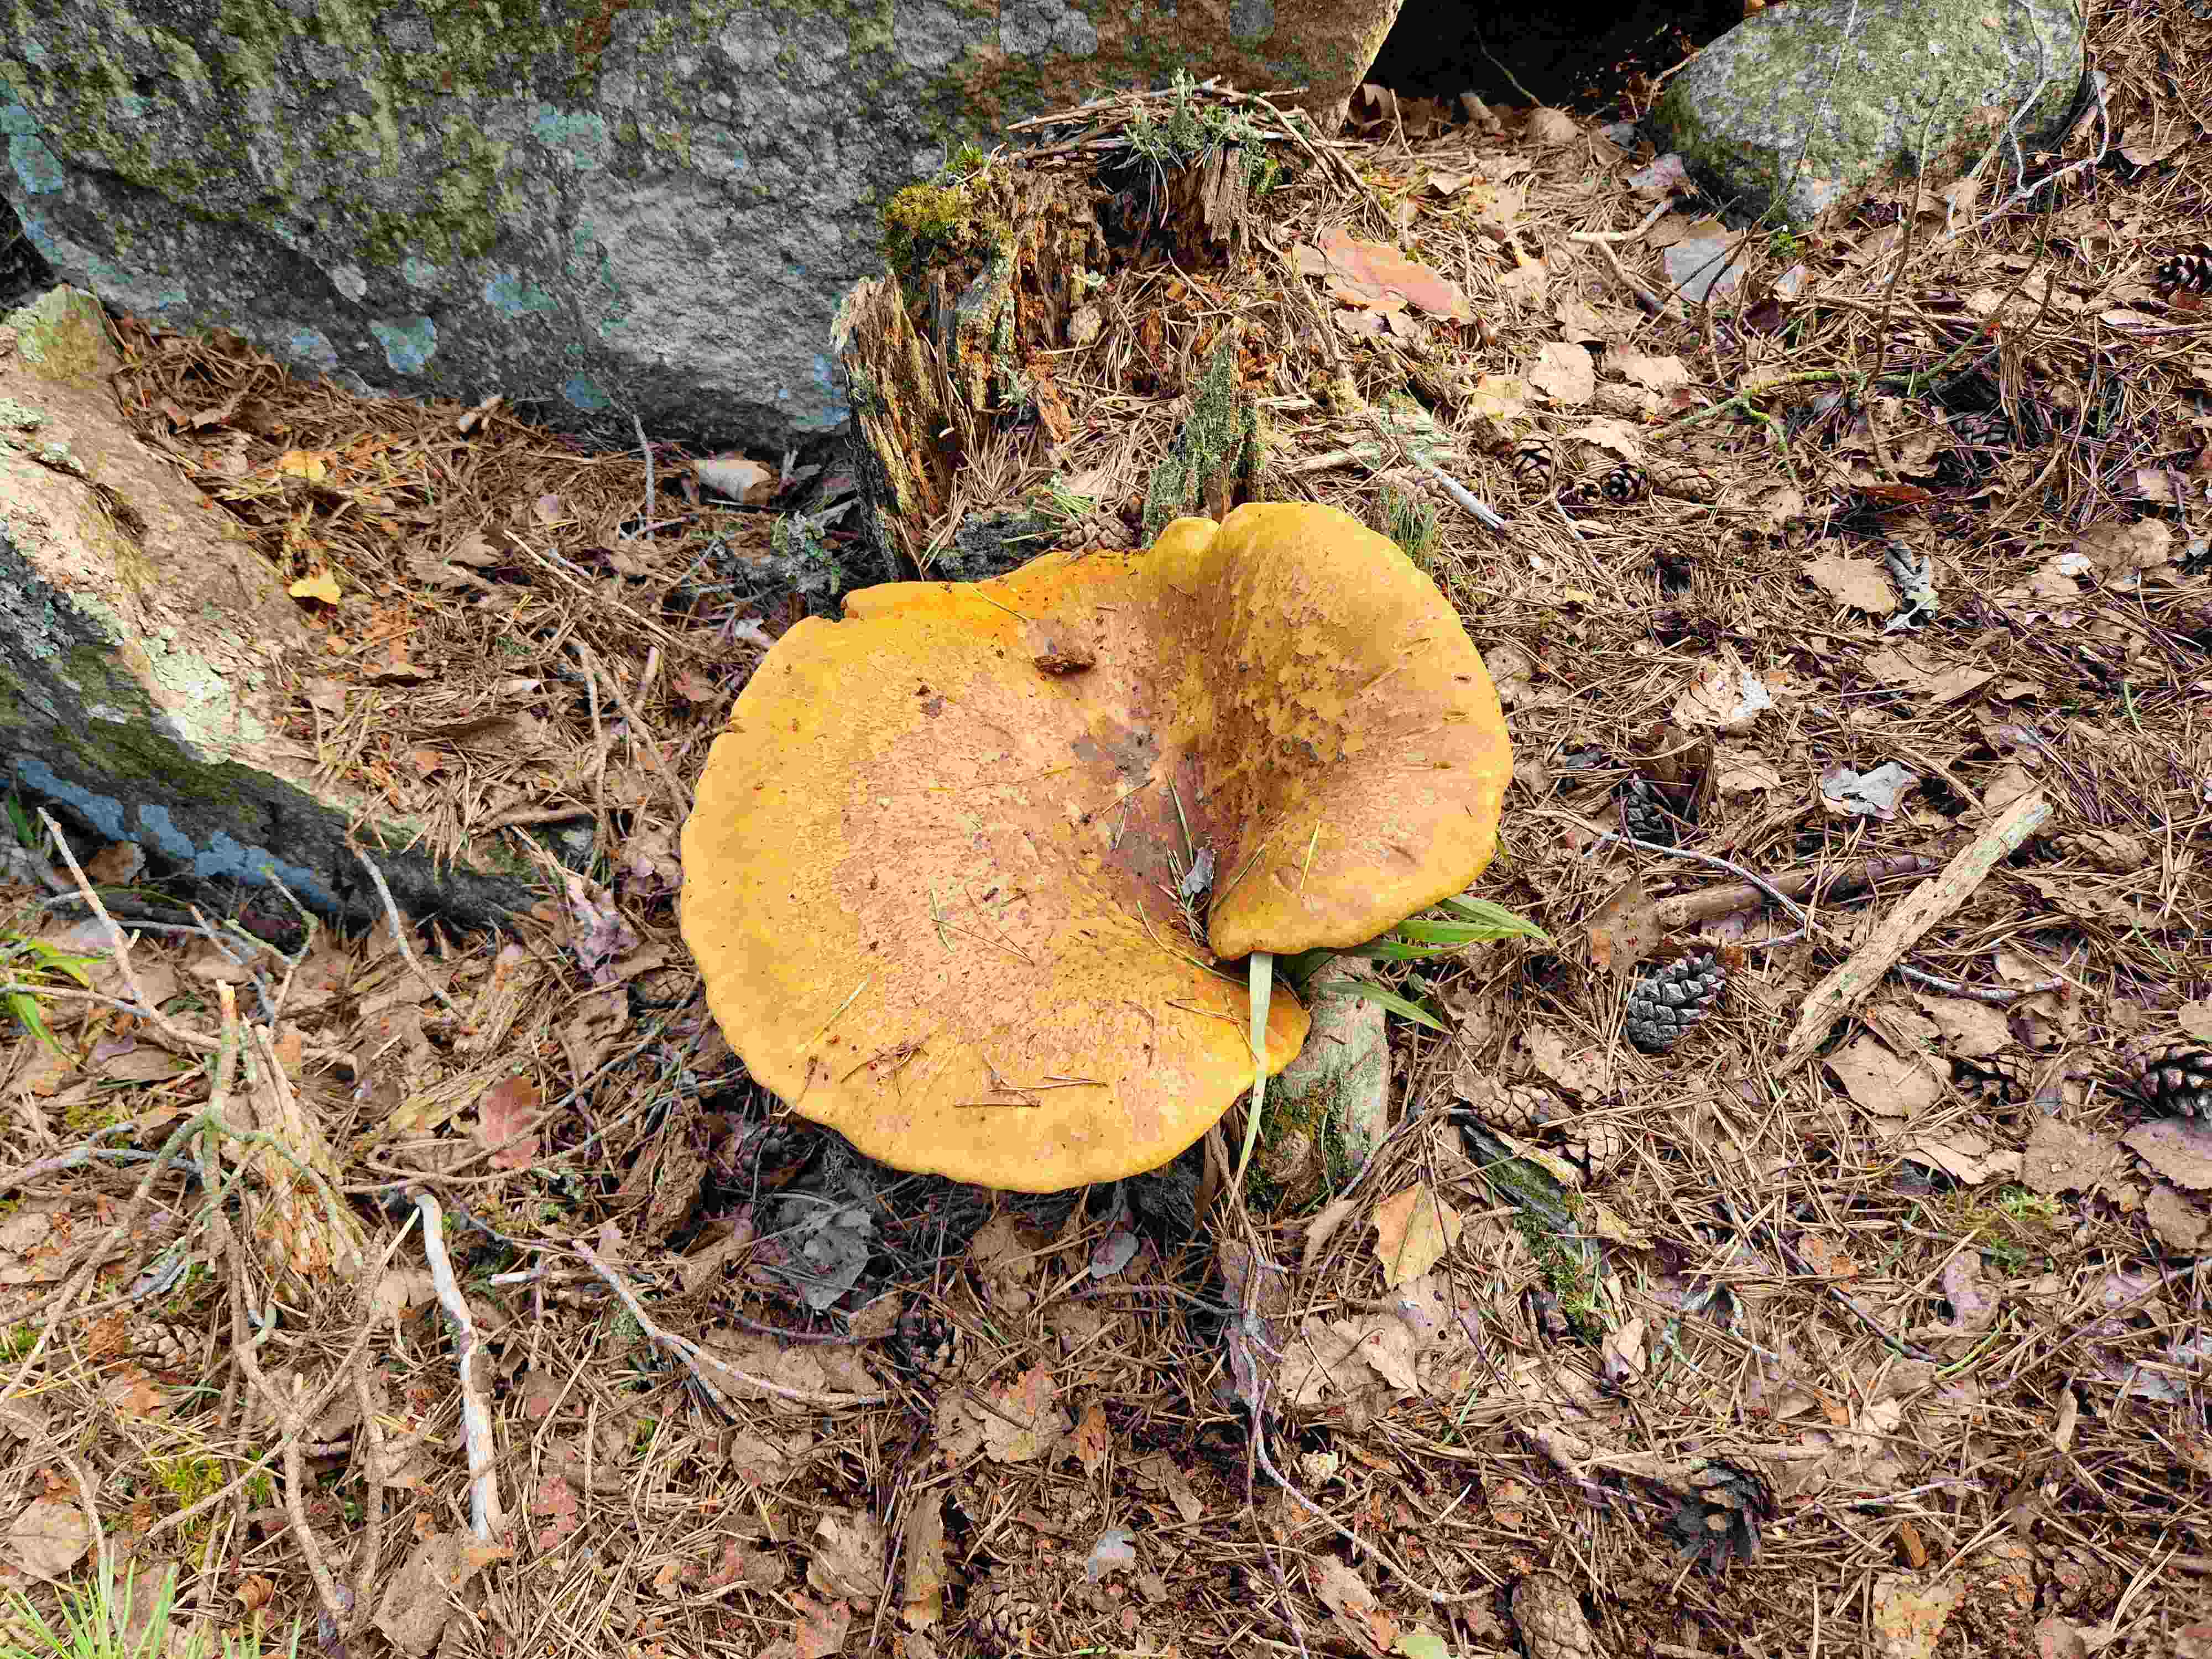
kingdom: Fungi
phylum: Basidiomycota
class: Agaricomycetes
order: Boletales
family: Tapinellaceae
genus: Tapinella
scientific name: Tapinella atrotomentosa
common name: sortfiltet viftesvamp
